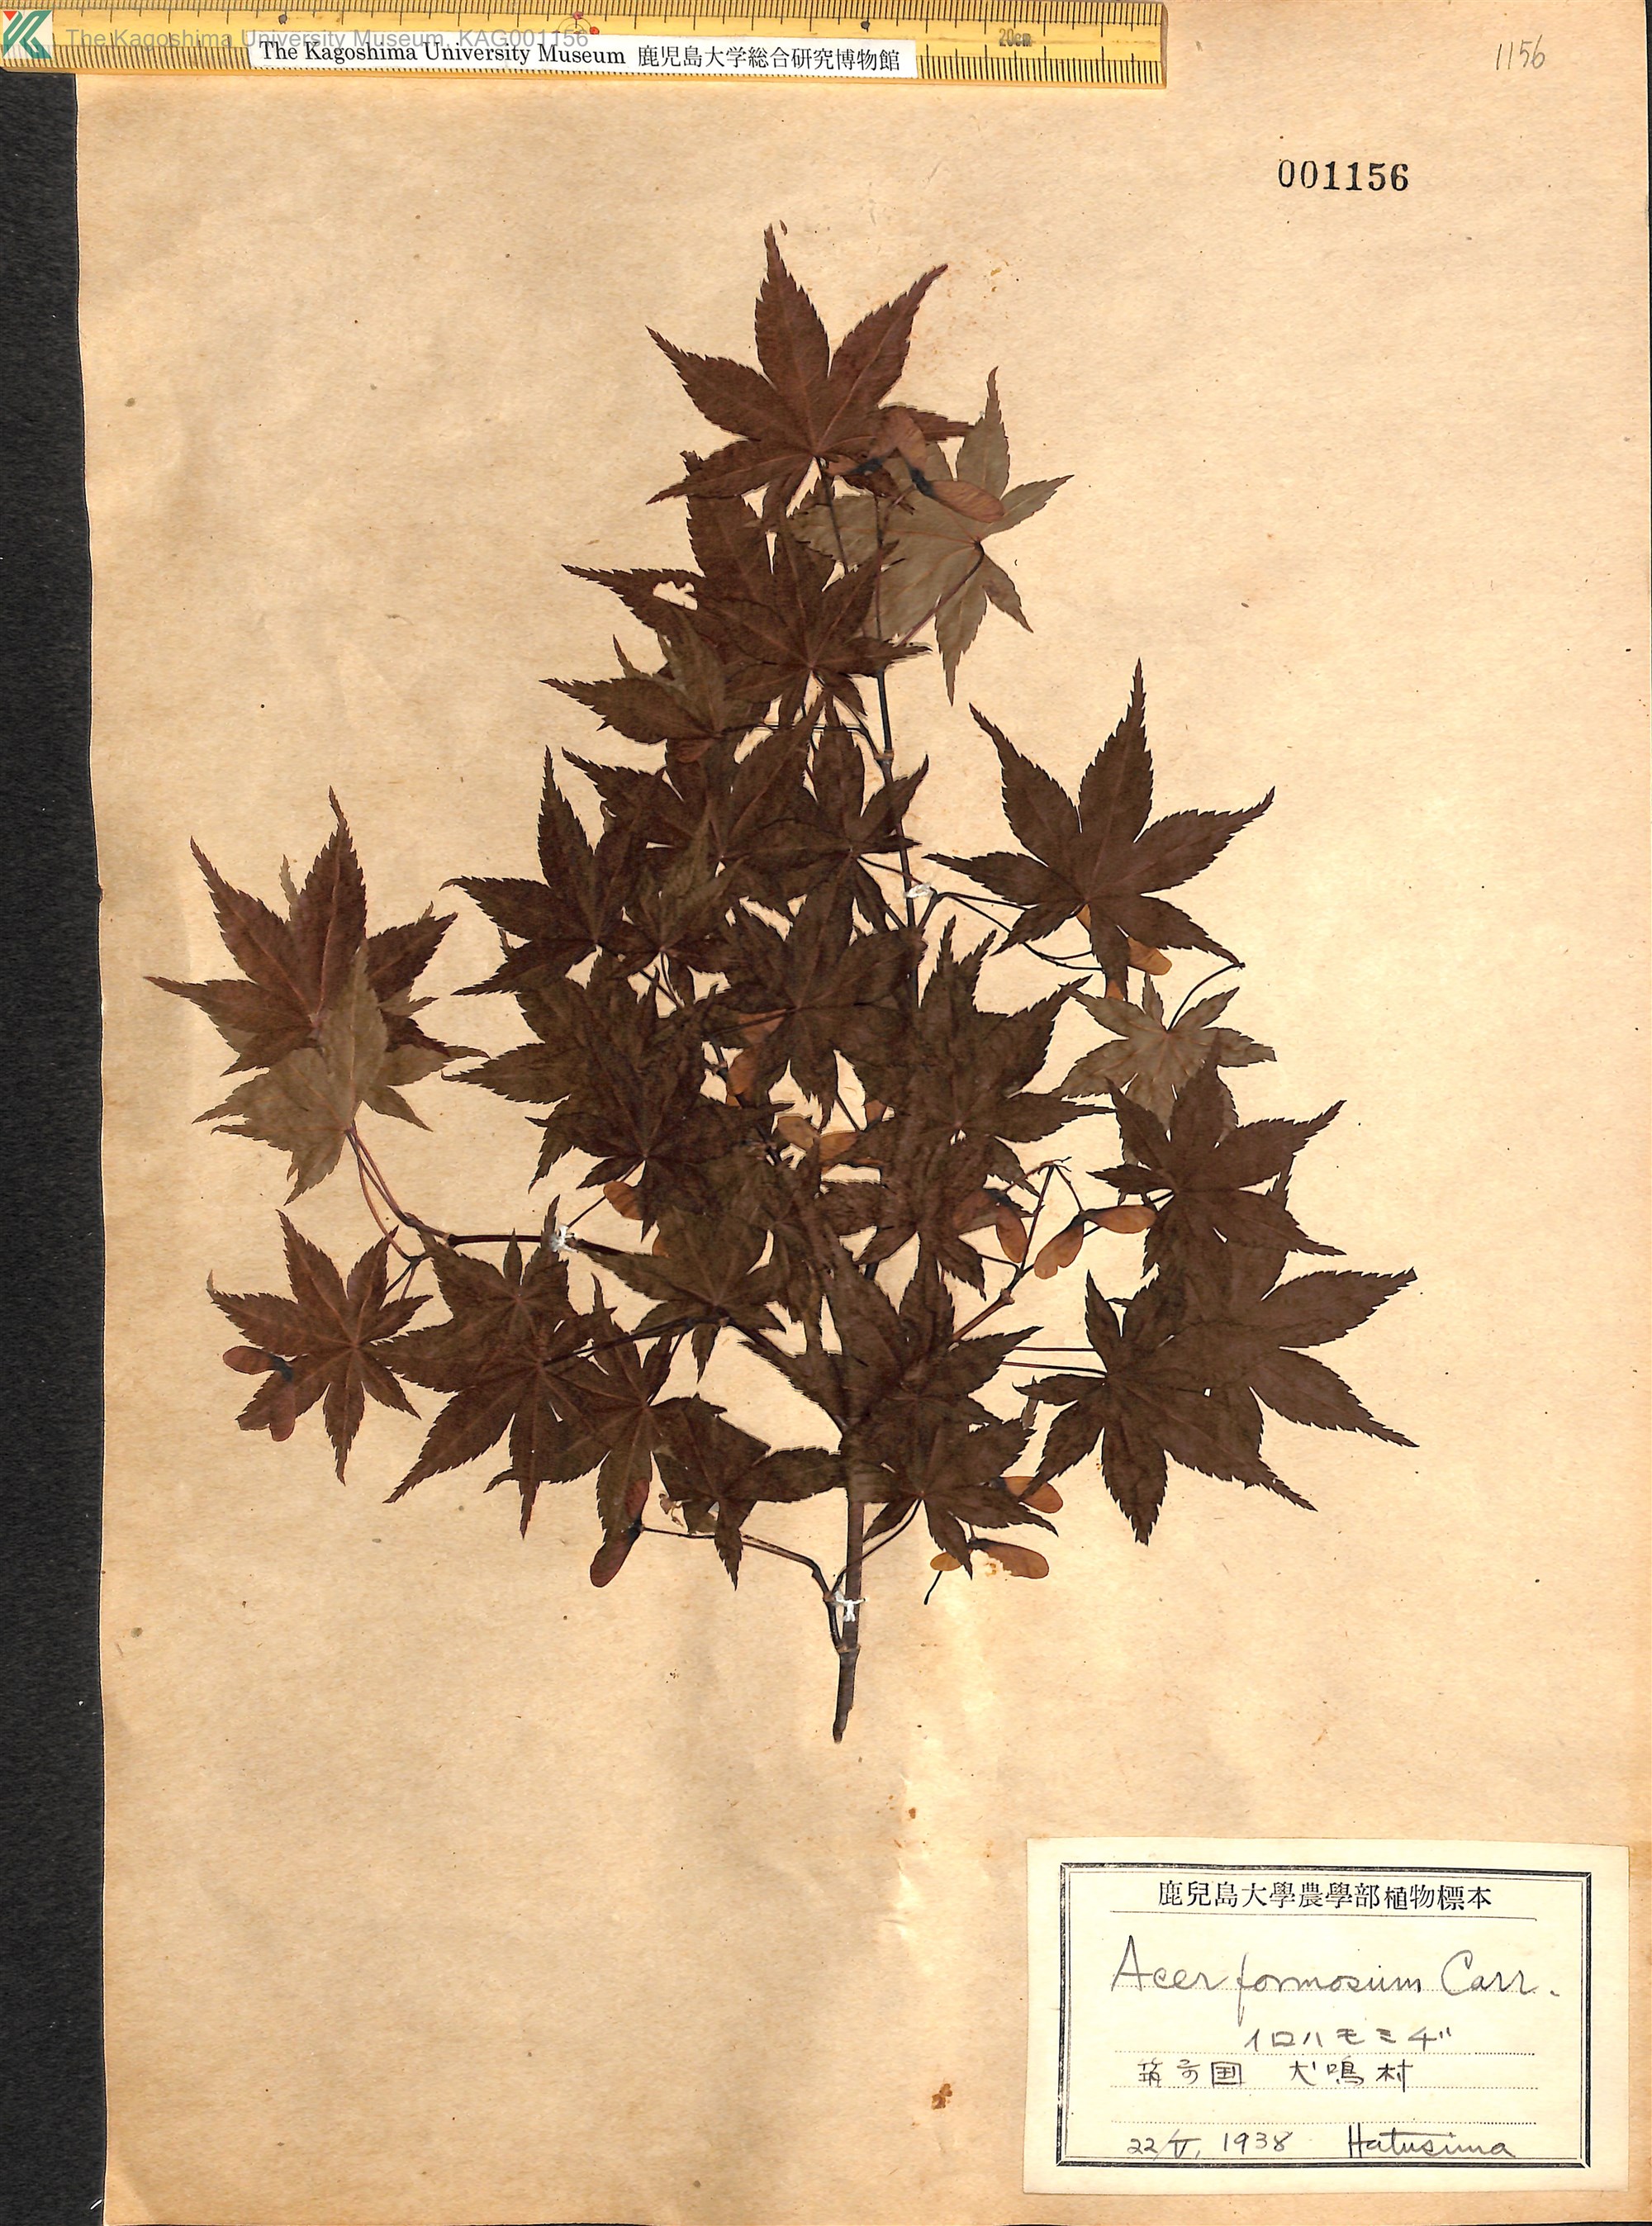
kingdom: Plantae
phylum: Tracheophyta
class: Magnoliopsida
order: Sapindales
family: Sapindaceae
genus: Acer
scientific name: Acer palmatum
